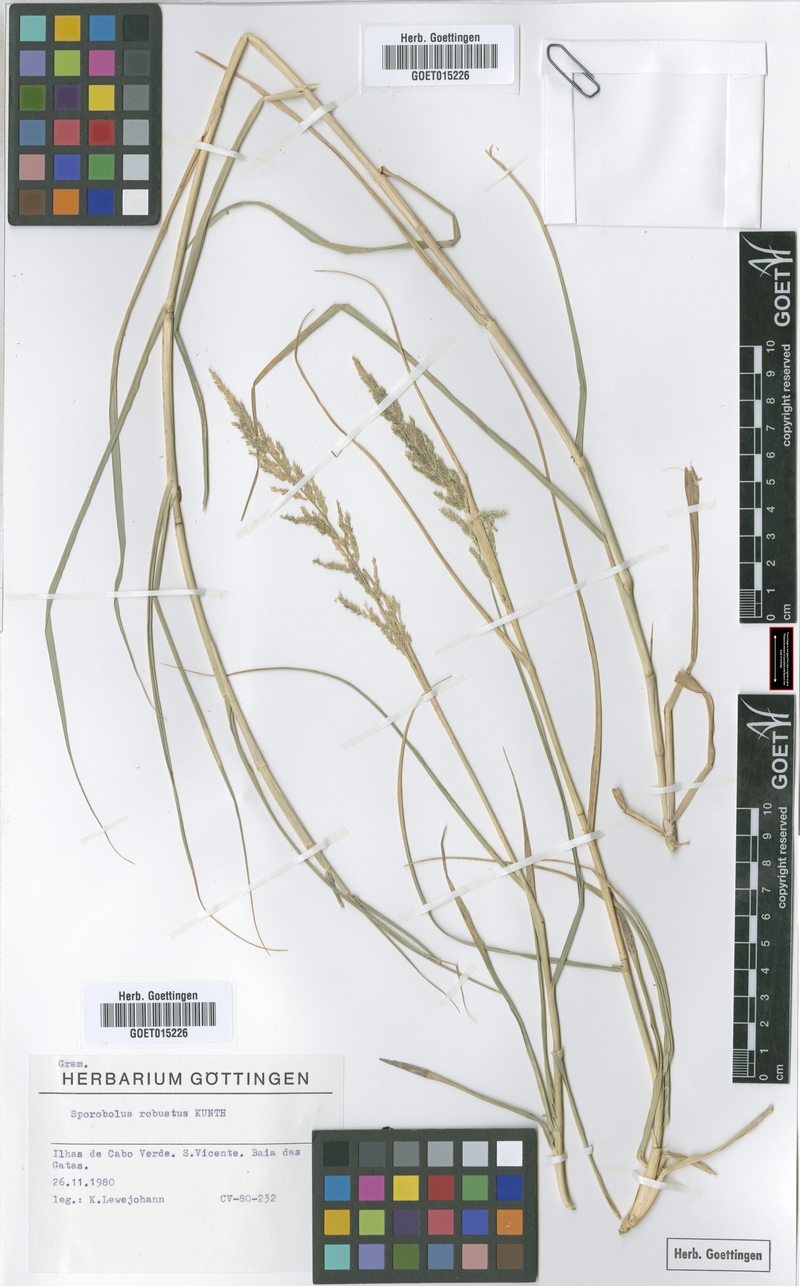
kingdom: Plantae
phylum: Tracheophyta
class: Liliopsida
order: Poales
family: Poaceae
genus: Sporobolus
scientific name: Sporobolus robustus
